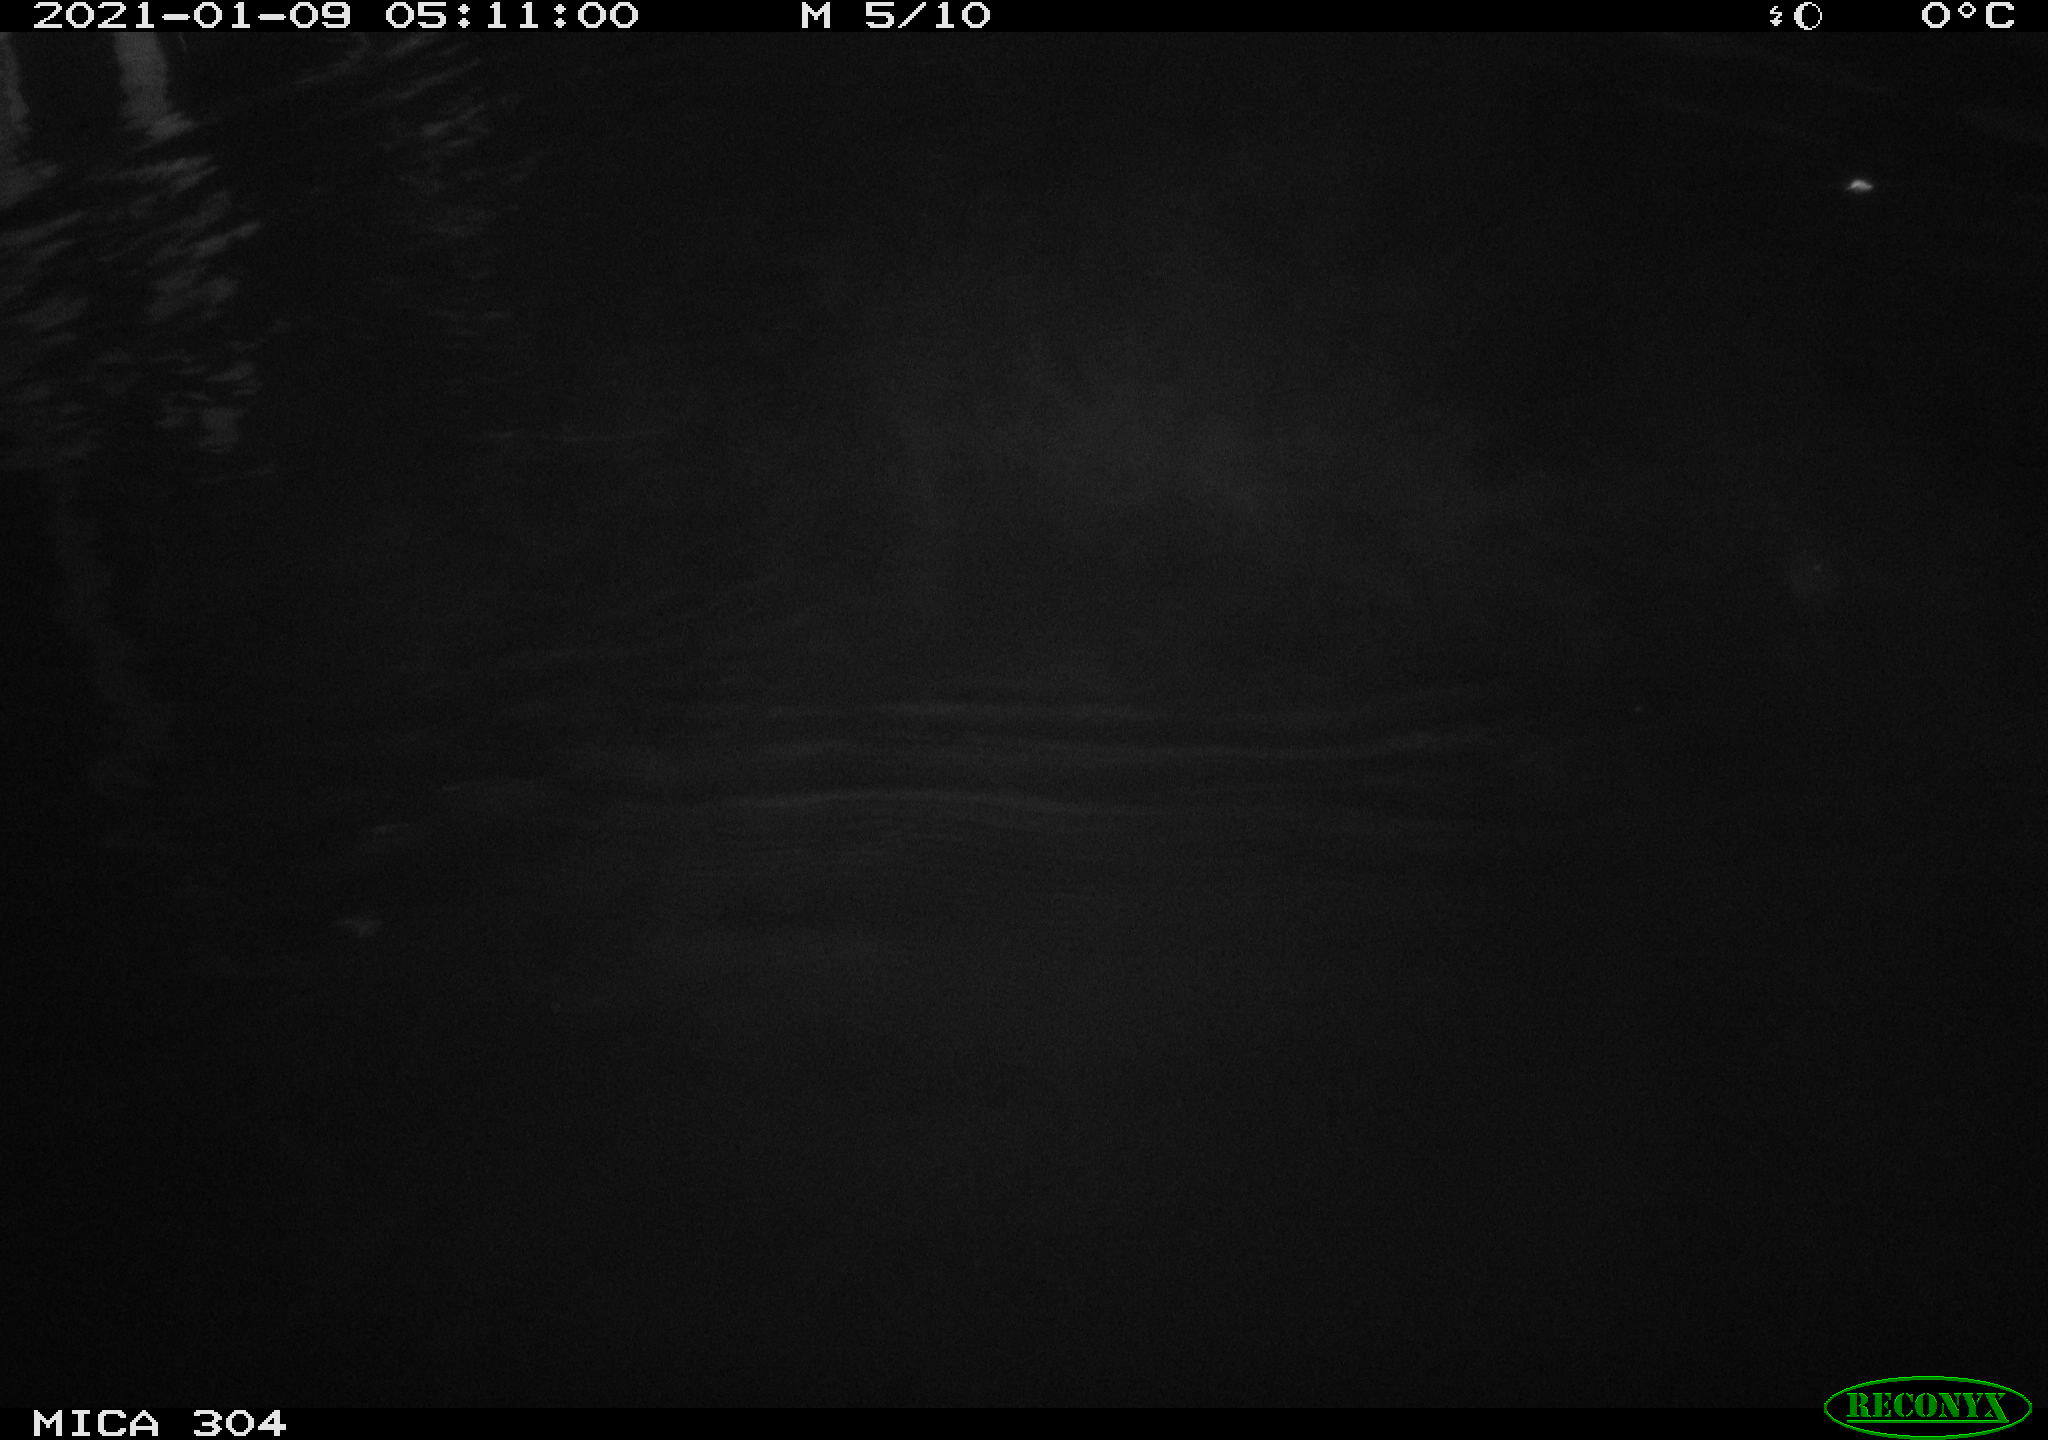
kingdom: Animalia
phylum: Chordata
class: Aves
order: Anseriformes
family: Anatidae
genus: Anas
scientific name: Anas platyrhynchos
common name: Mallard
